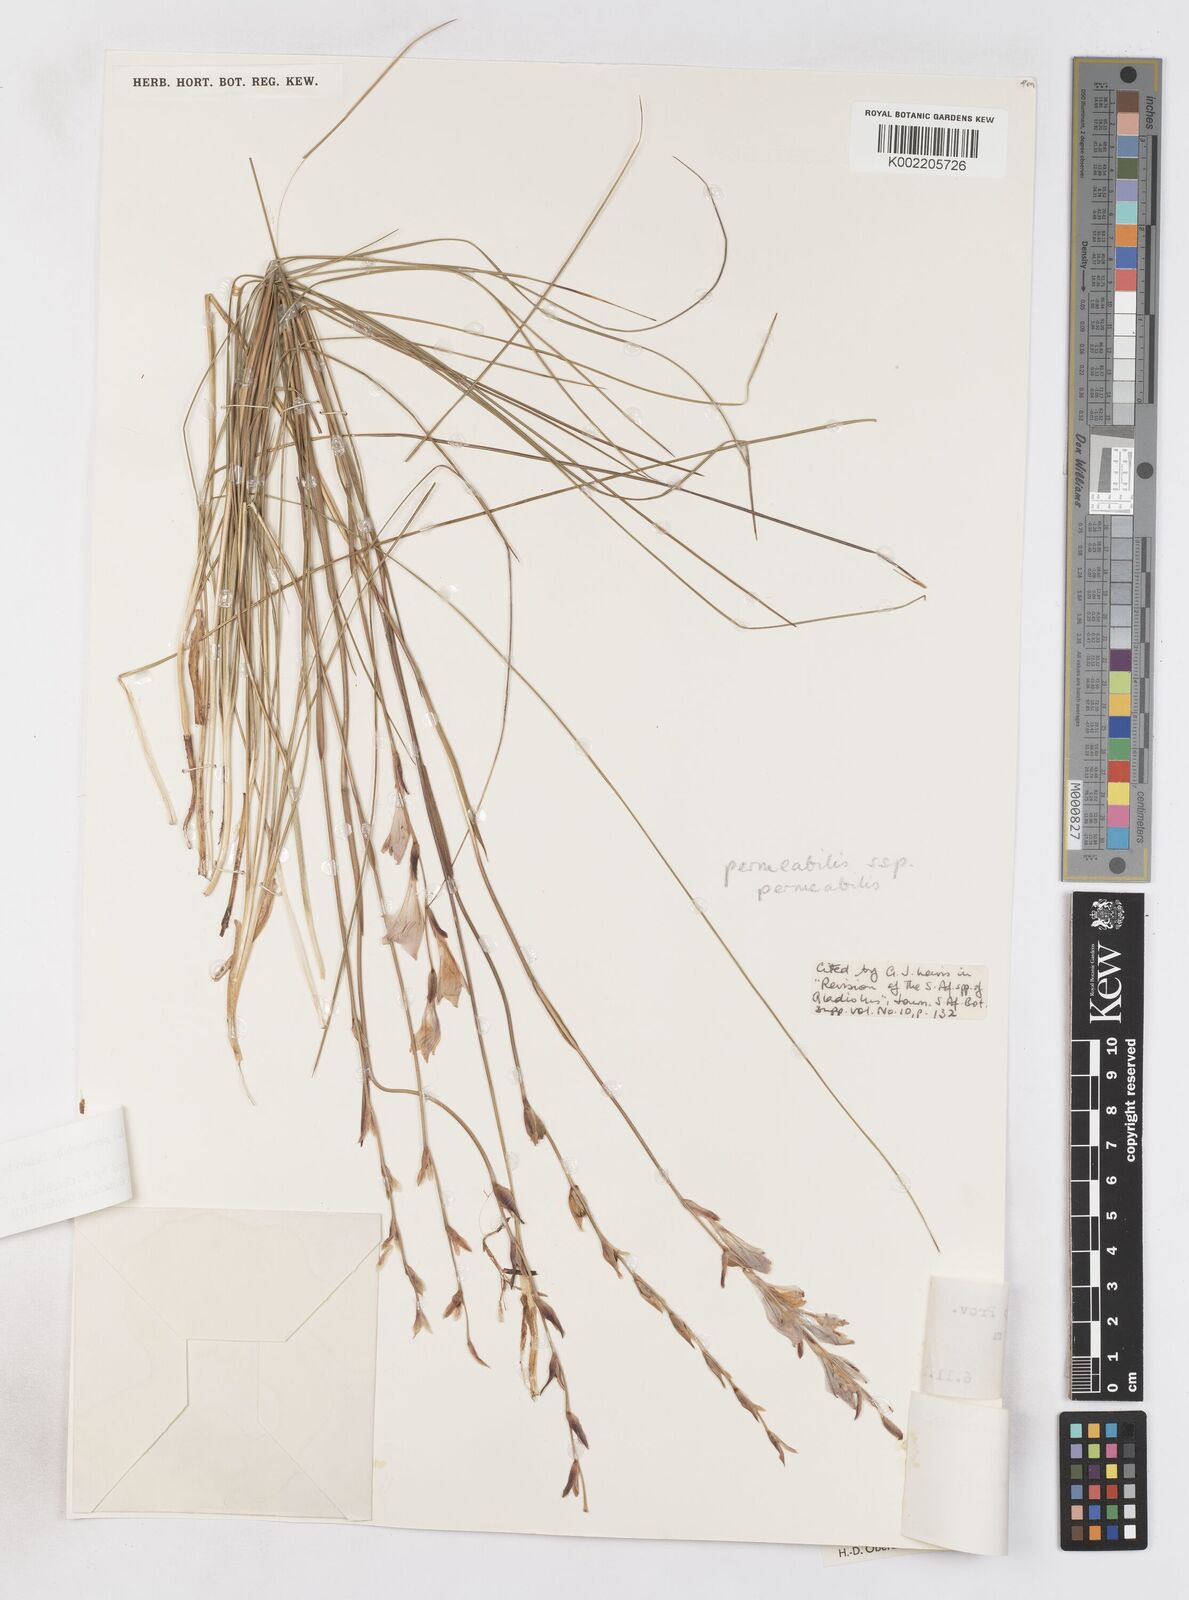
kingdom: Plantae
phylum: Tracheophyta
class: Liliopsida
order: Asparagales
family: Iridaceae
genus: Gladiolus
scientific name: Gladiolus permeabilis
